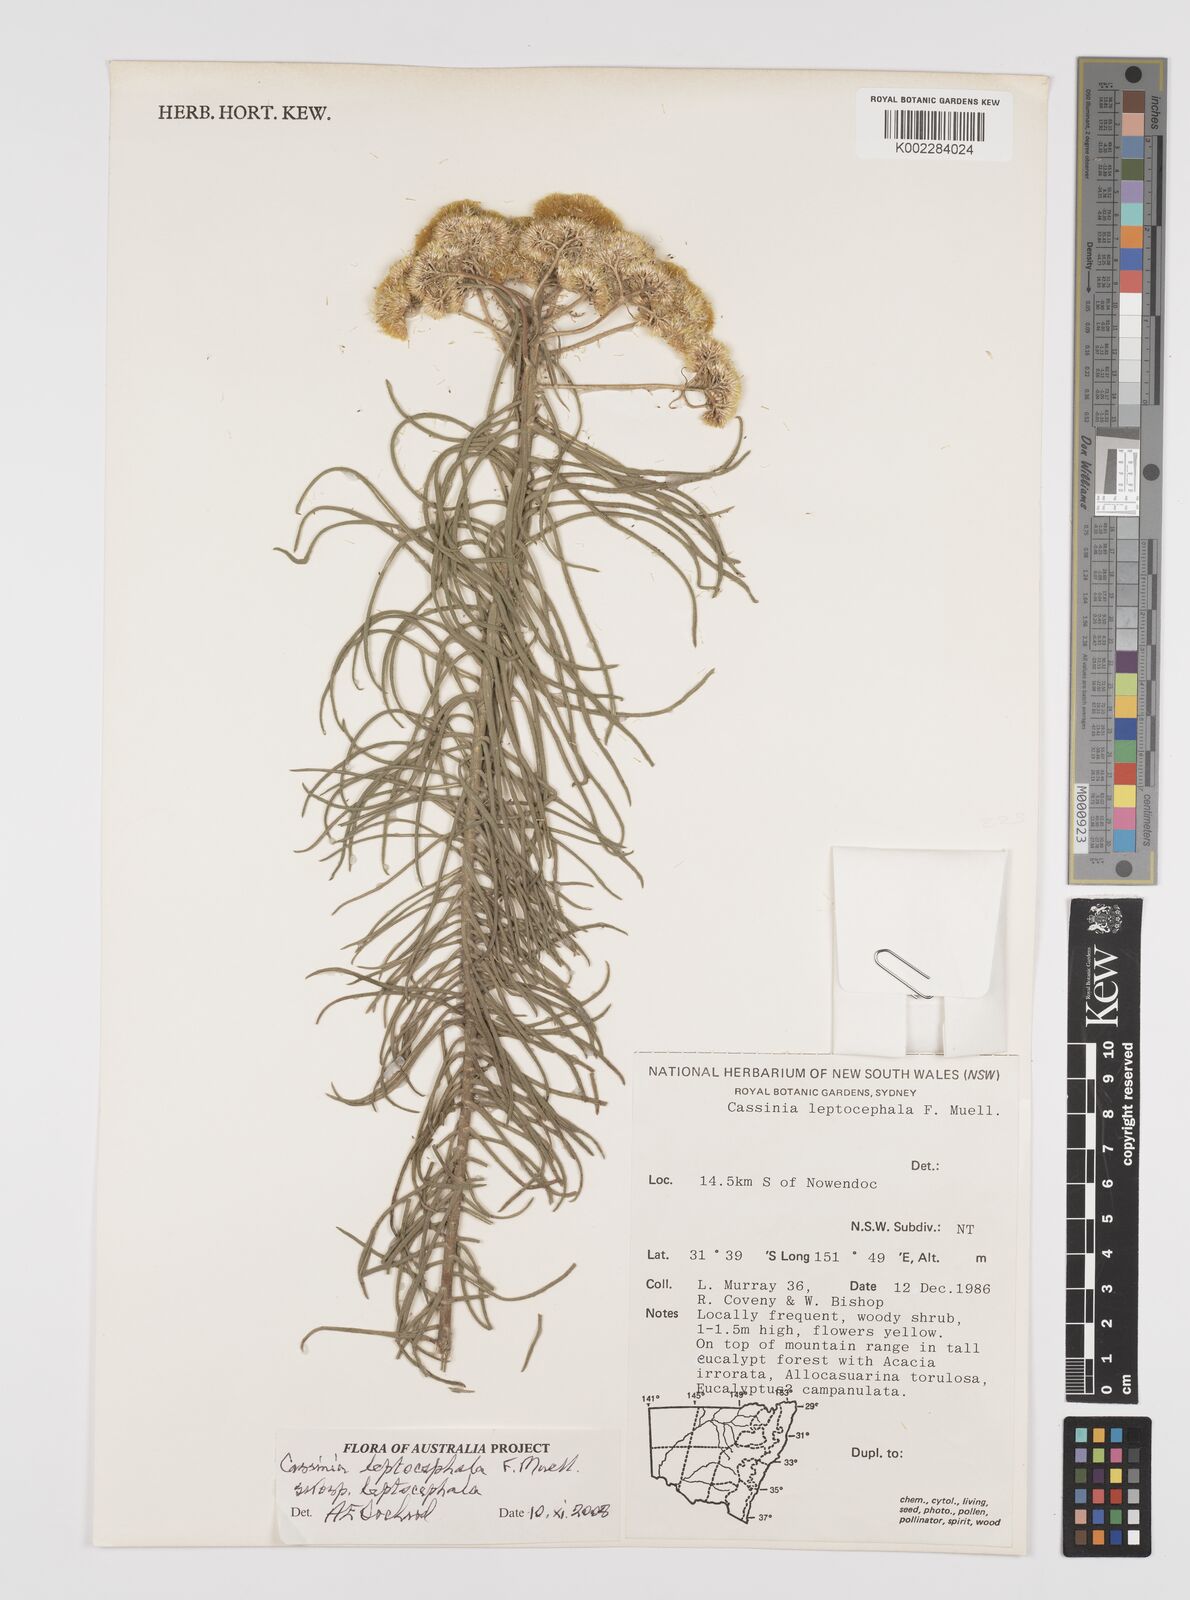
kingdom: Plantae
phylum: Tracheophyta
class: Magnoliopsida
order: Asterales
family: Asteraceae
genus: Cassinia
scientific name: Cassinia leptocephala
